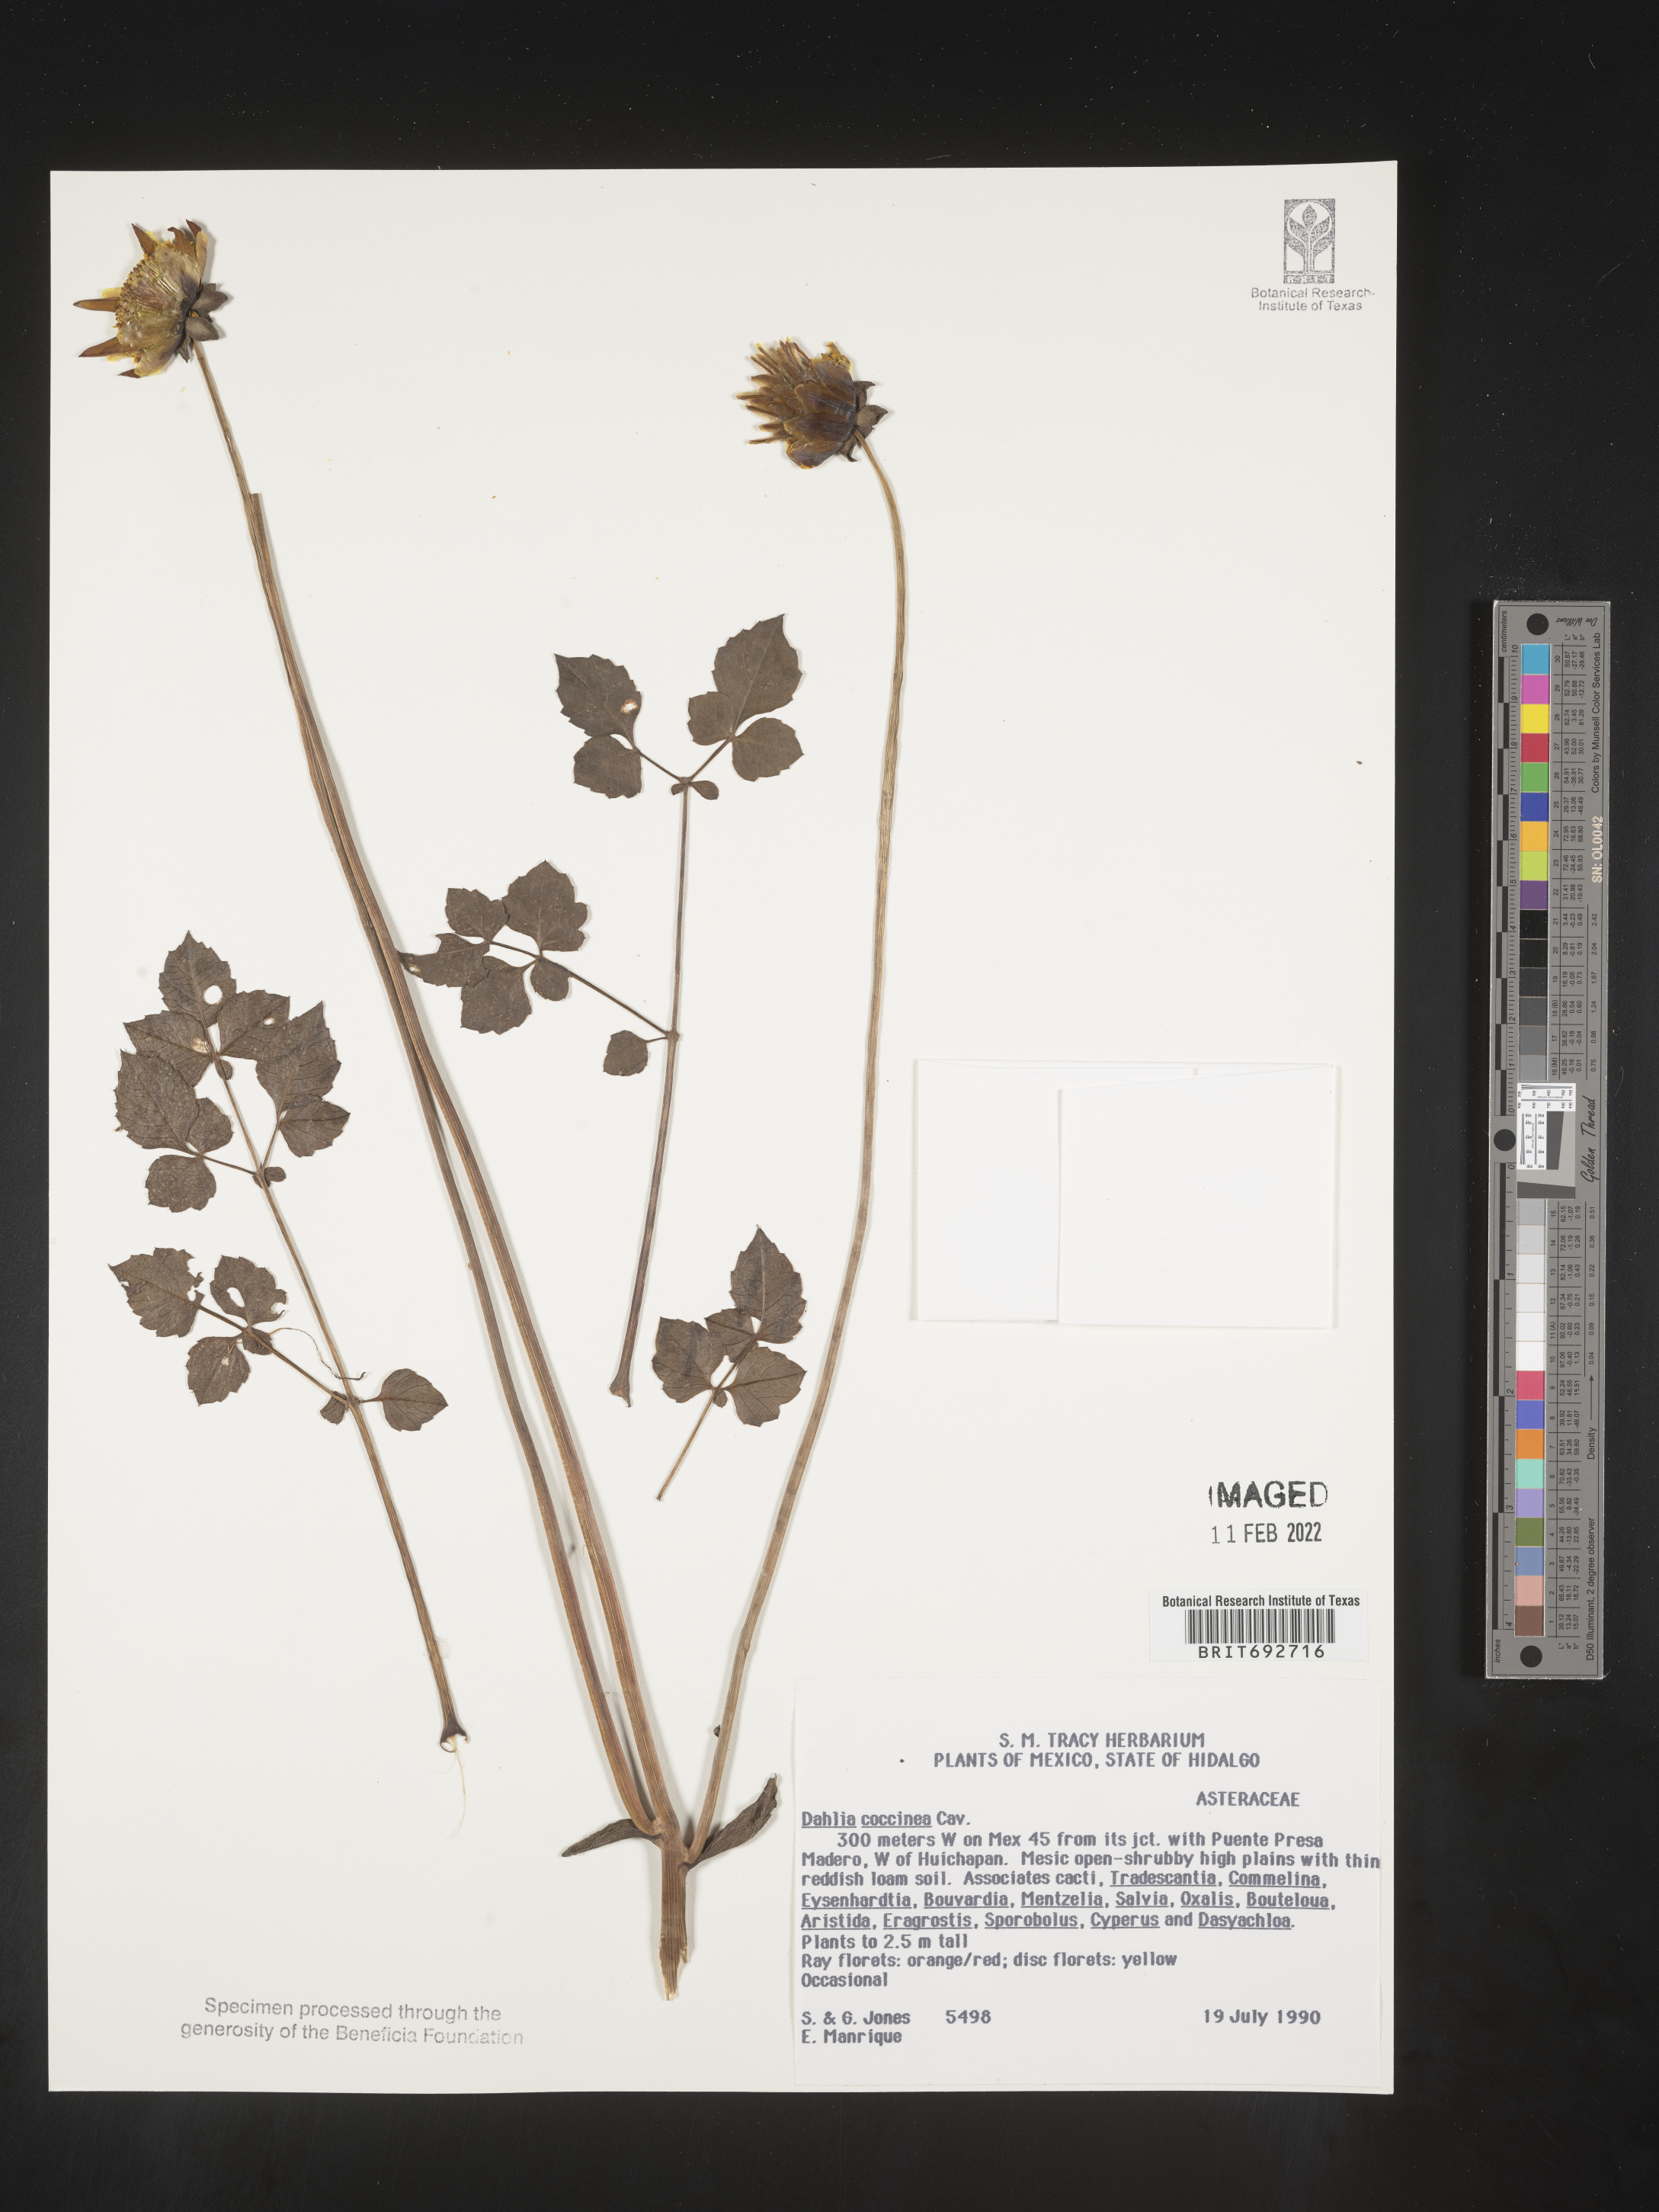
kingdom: Plantae
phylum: Tracheophyta
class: Magnoliopsida
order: Asterales
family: Asteraceae
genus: Dahlia
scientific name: Dahlia
